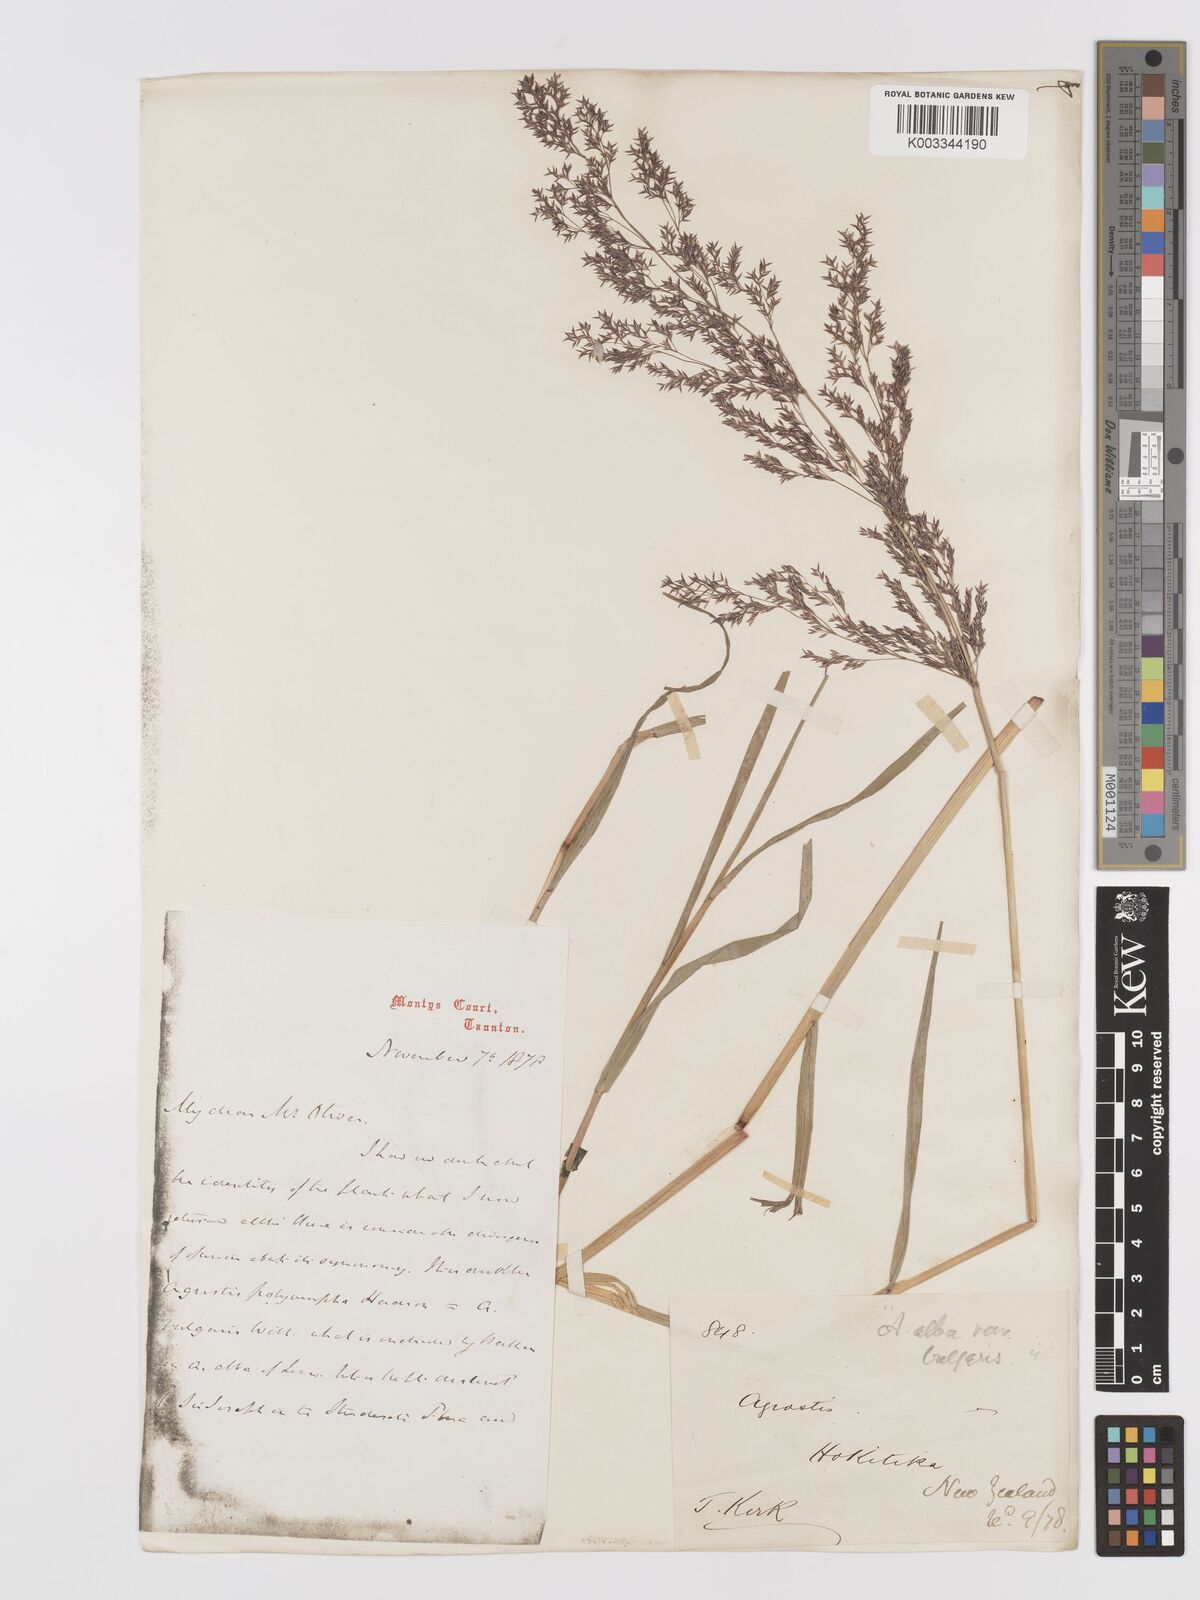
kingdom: Plantae
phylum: Tracheophyta
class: Liliopsida
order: Poales
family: Poaceae
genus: Agrostis
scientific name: Agrostis
